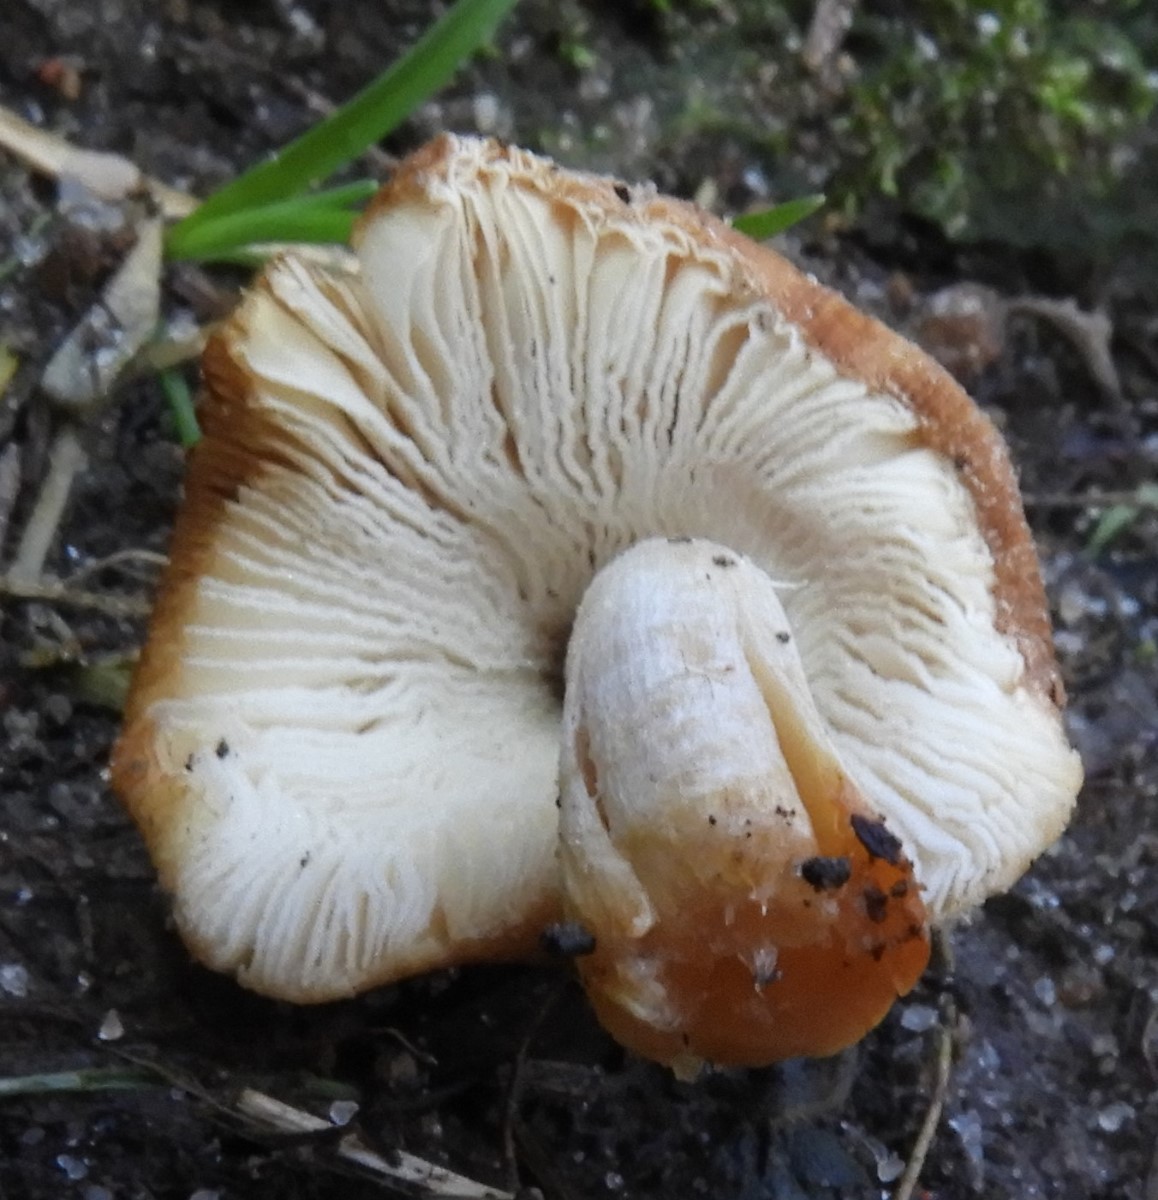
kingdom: Fungi
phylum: Basidiomycota
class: Agaricomycetes
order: Agaricales
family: Psathyrellaceae
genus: Coprinellus
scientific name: Coprinellus
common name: blækhat
